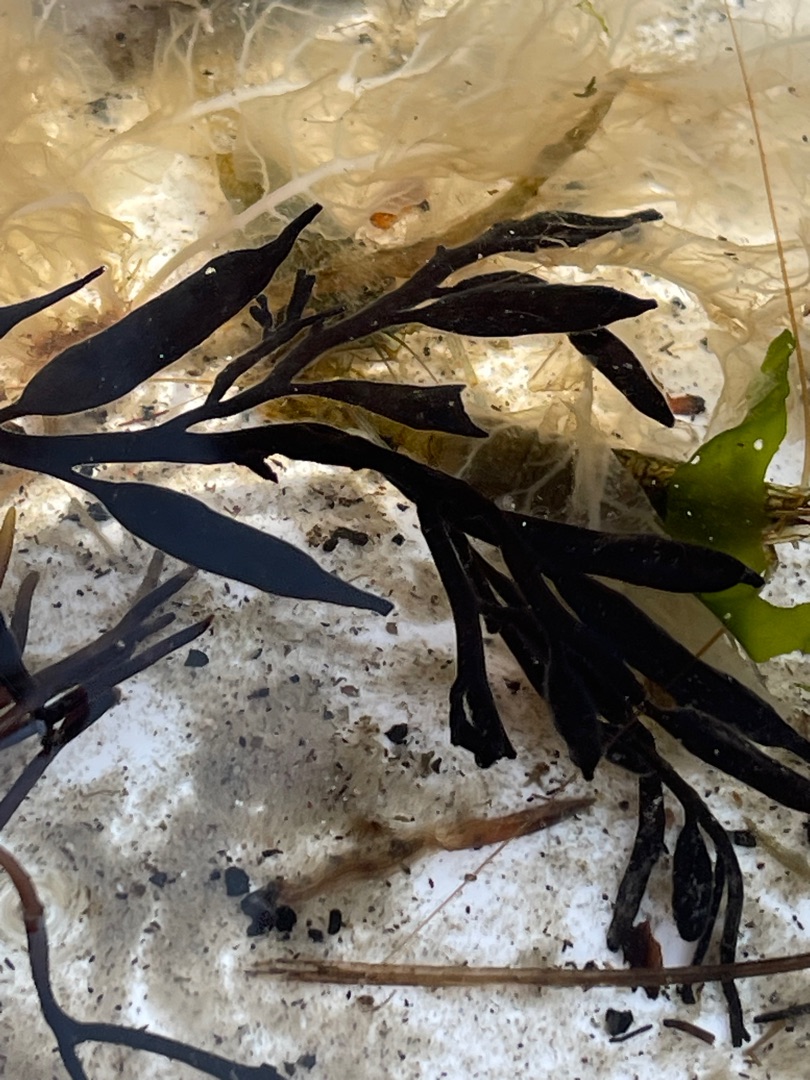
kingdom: Chromista
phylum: Ochrophyta
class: Phaeophyceae
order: Fucales
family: Sargassaceae
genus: Halidrys
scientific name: Halidrys siliquosa
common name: Skulpetang
